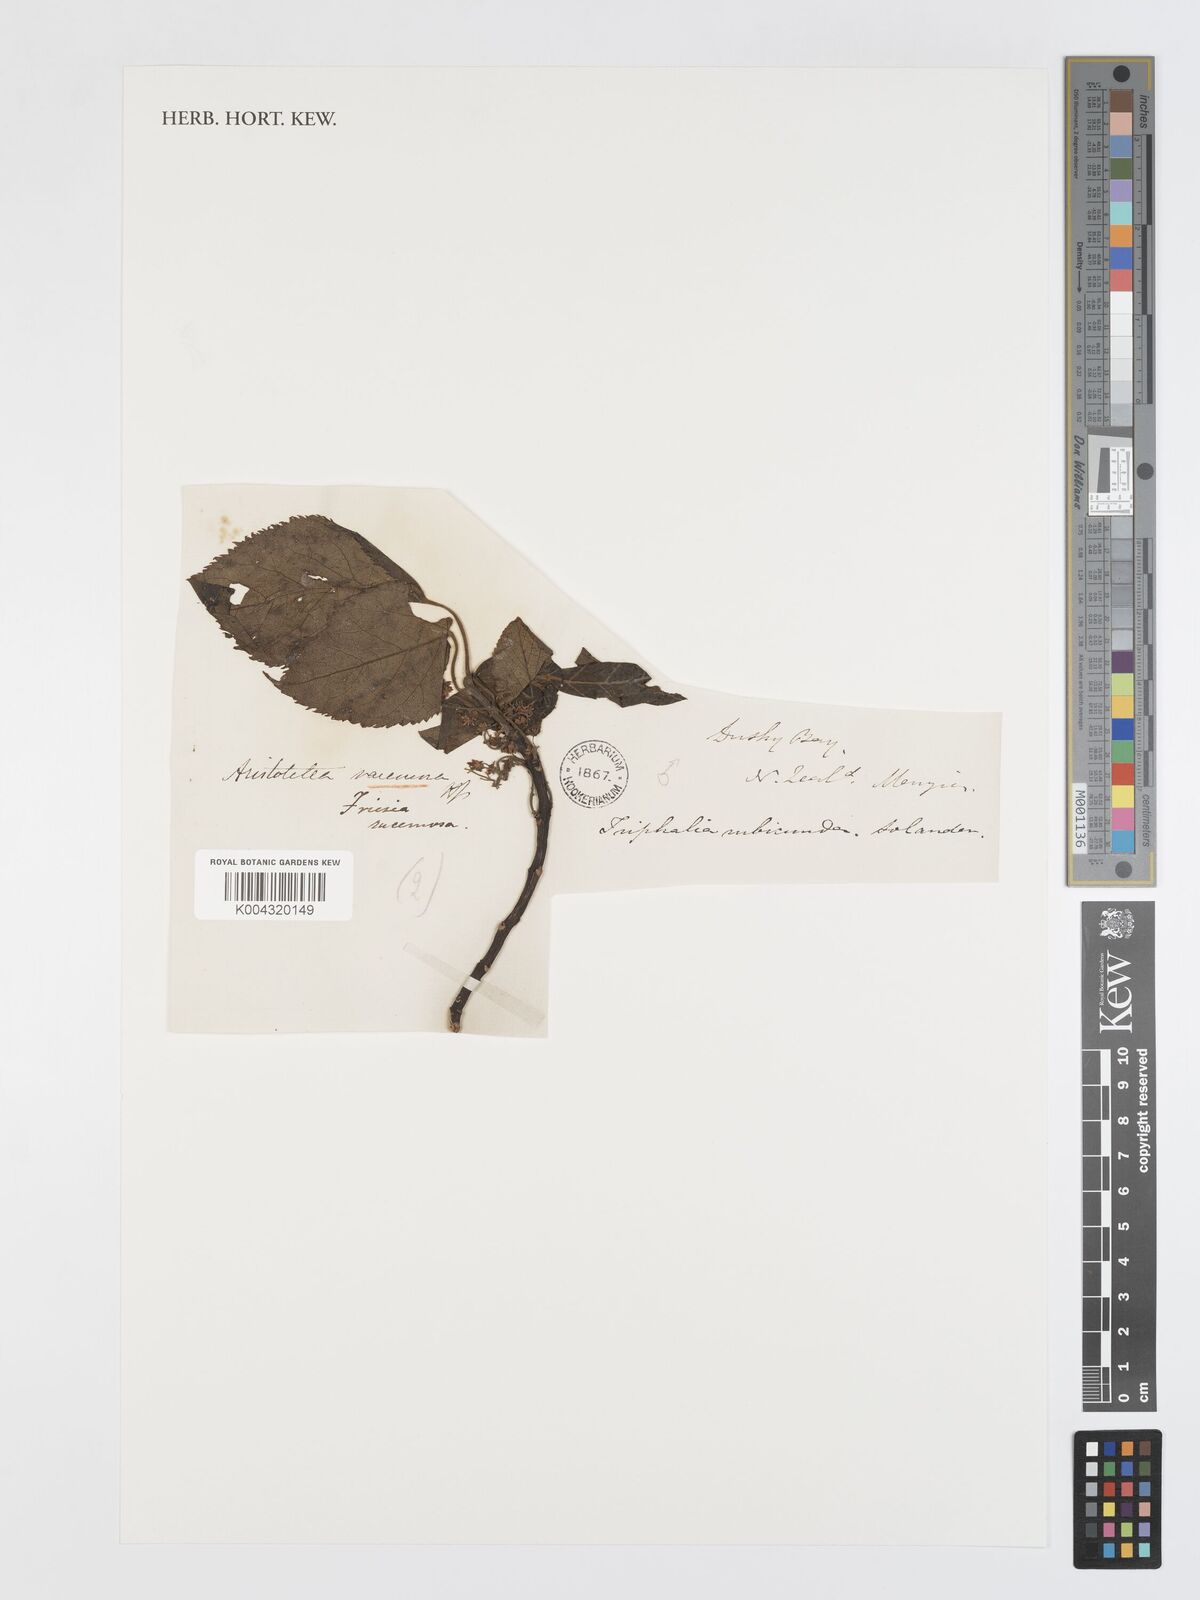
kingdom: Plantae
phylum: Tracheophyta
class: Magnoliopsida
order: Oxalidales
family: Elaeocarpaceae
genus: Aristotelia
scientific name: Aristotelia serrata
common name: New zealand wineberry
